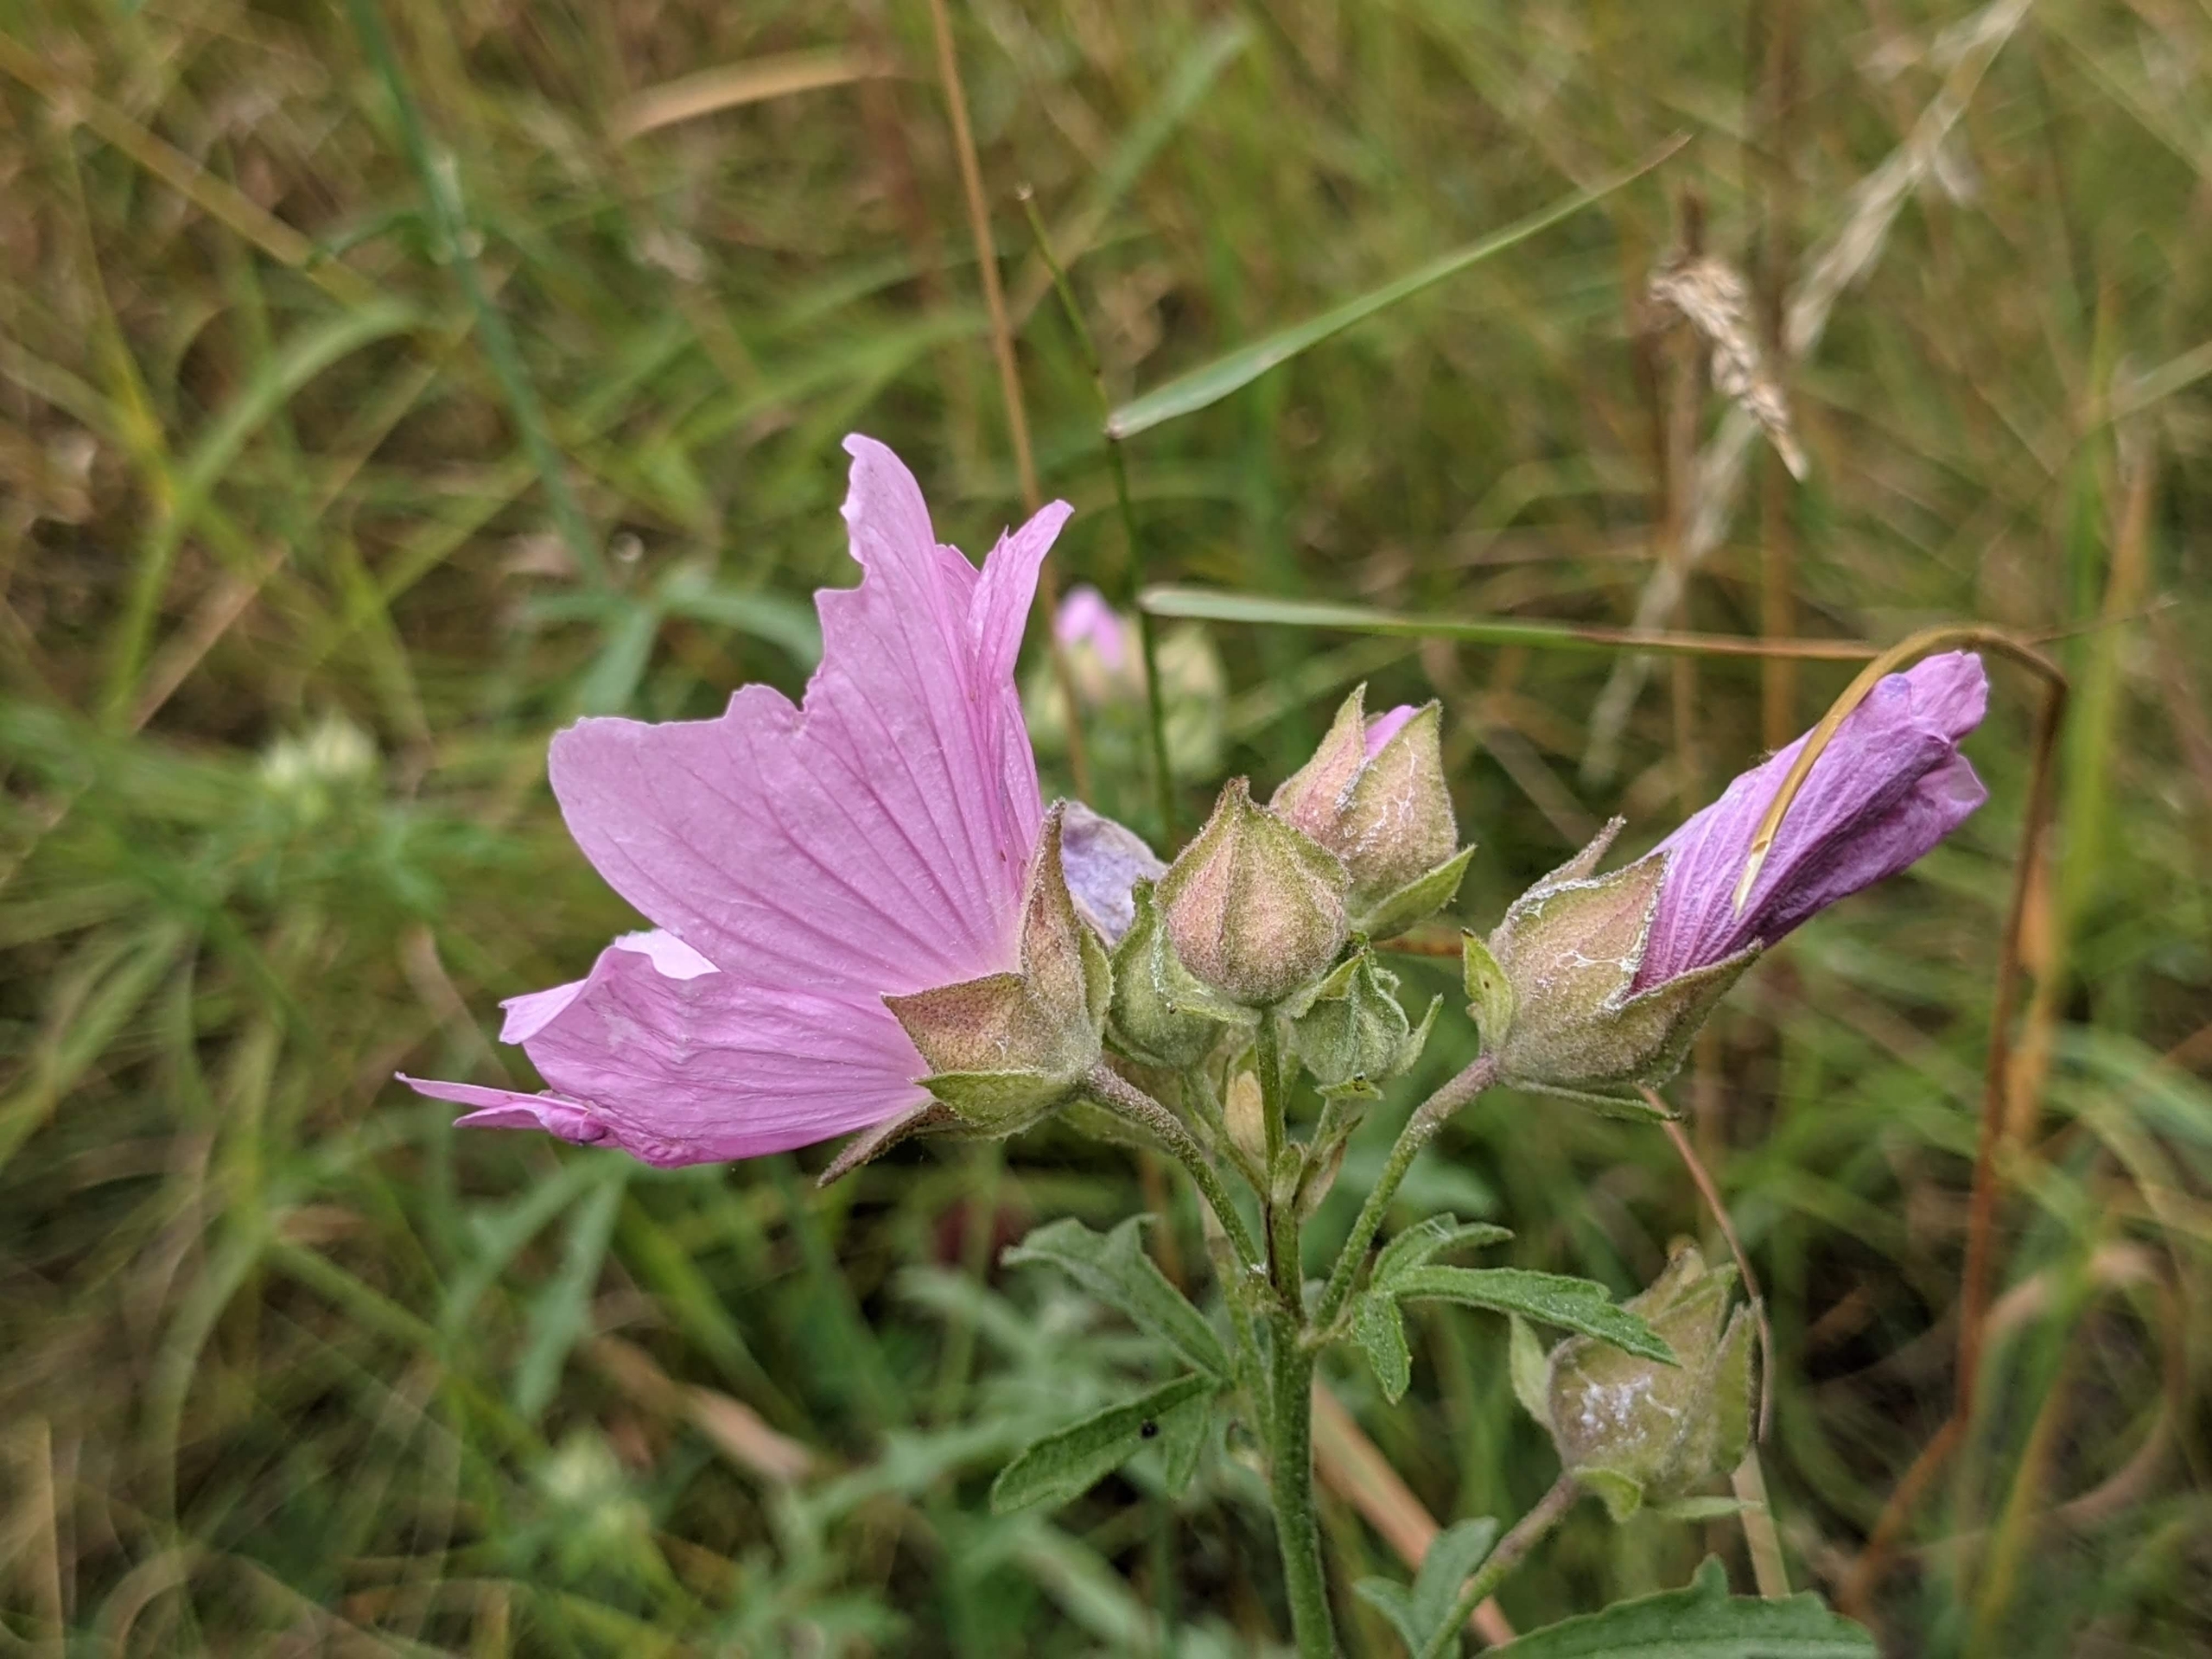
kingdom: Plantae
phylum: Tracheophyta
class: Magnoliopsida
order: Malvales
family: Malvaceae
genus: Malva
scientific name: Malva alcea
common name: Rosen-katost
